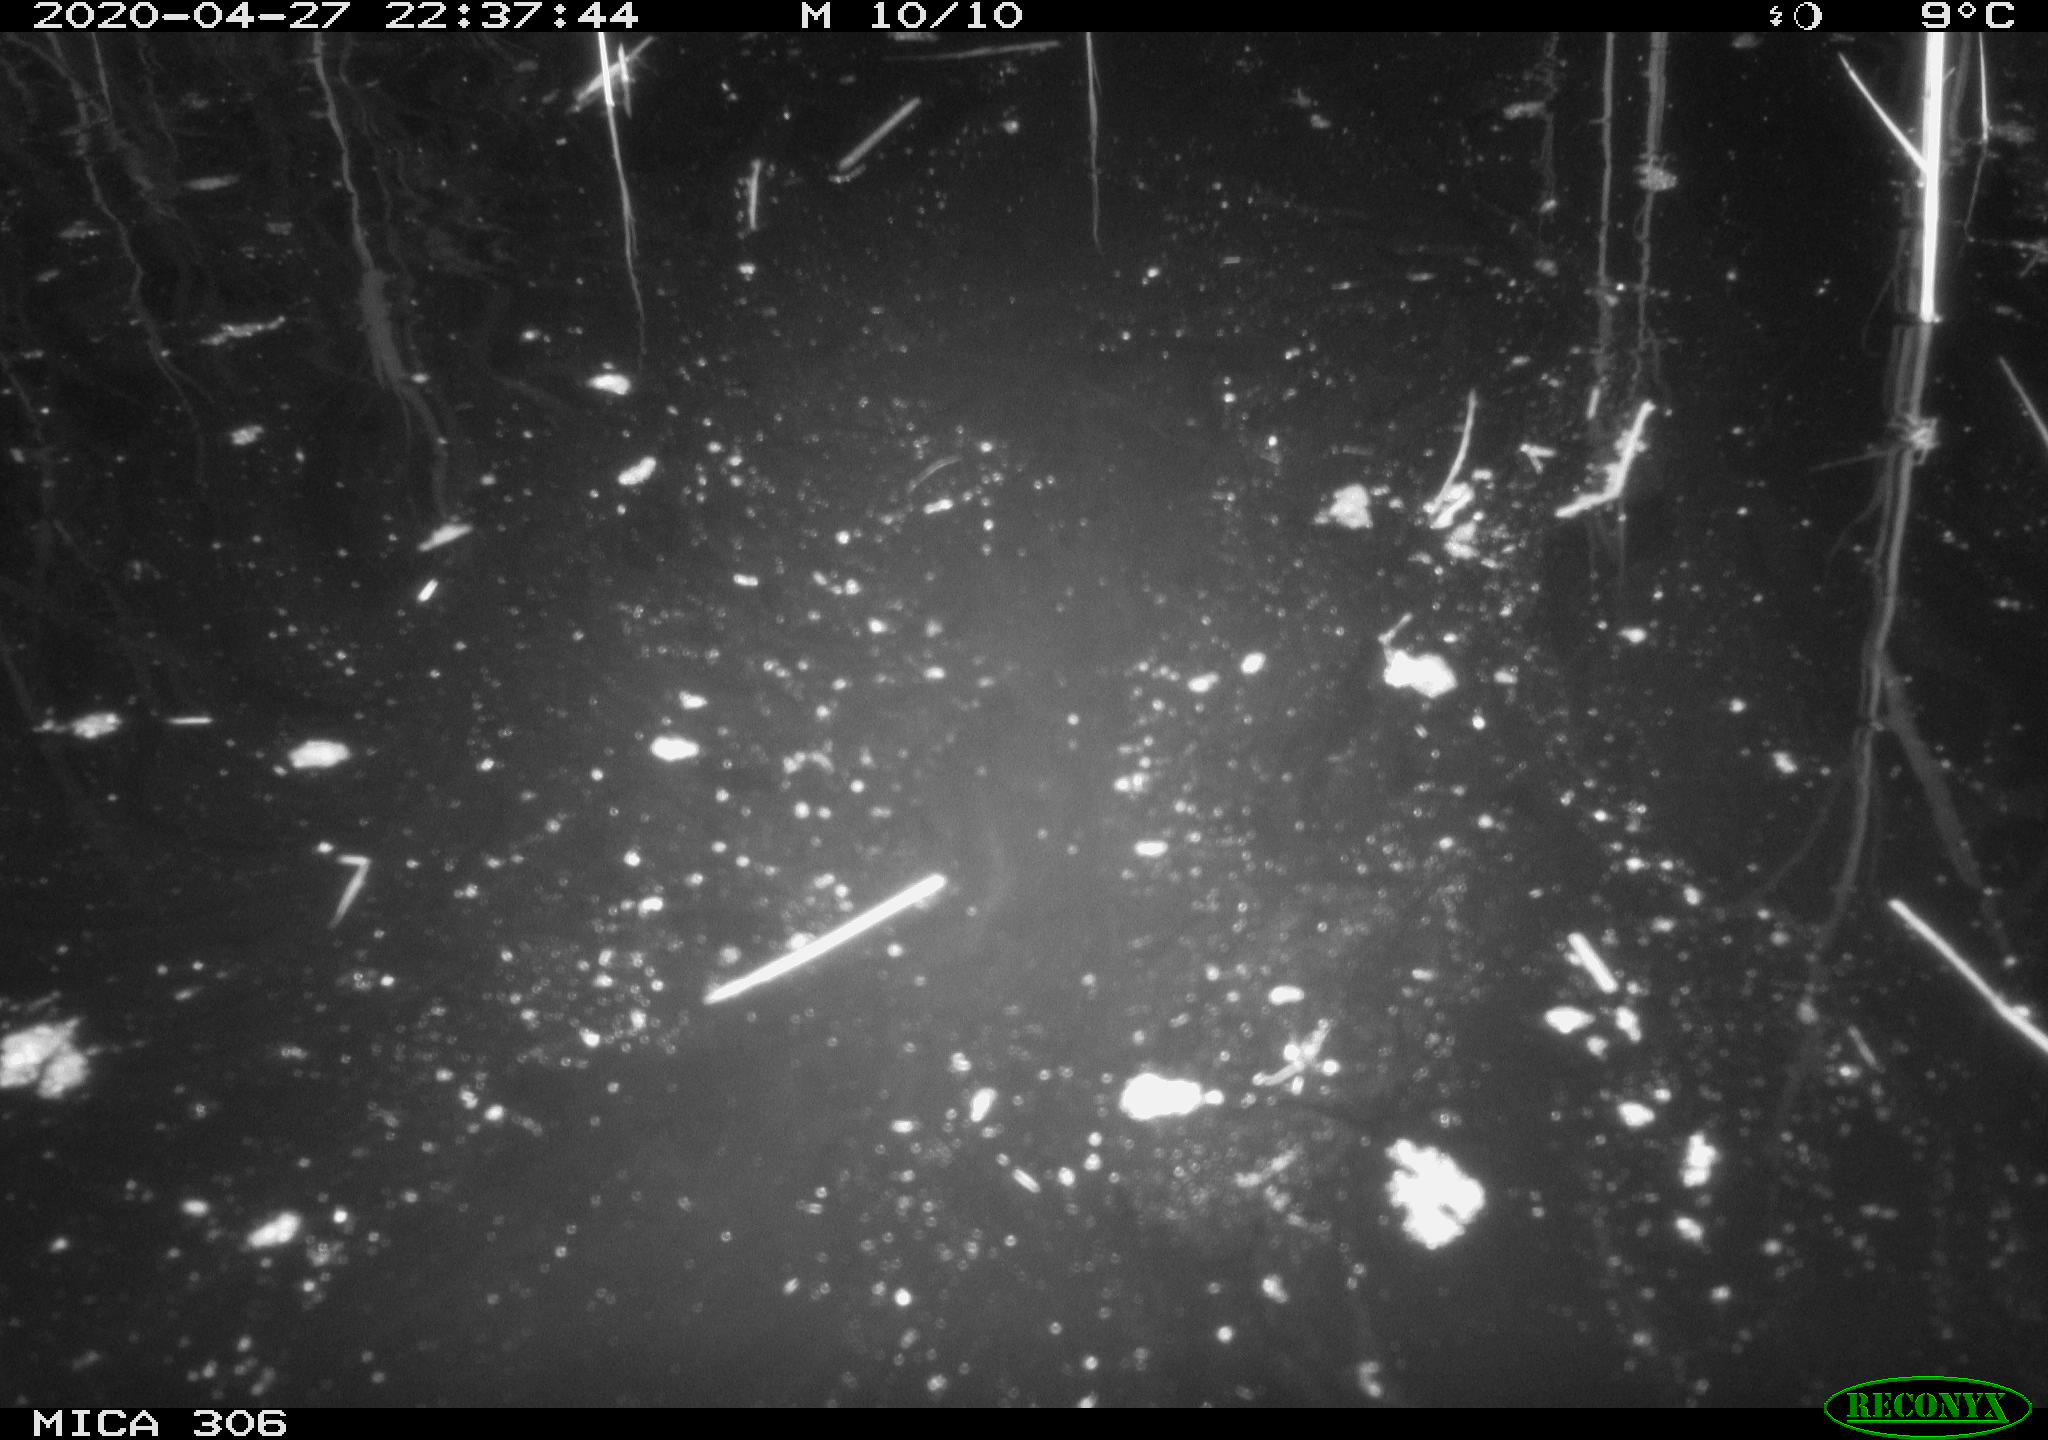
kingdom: Animalia
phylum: Chordata
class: Mammalia
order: Rodentia
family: Cricetidae
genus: Ondatra
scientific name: Ondatra zibethicus
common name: Muskrat
